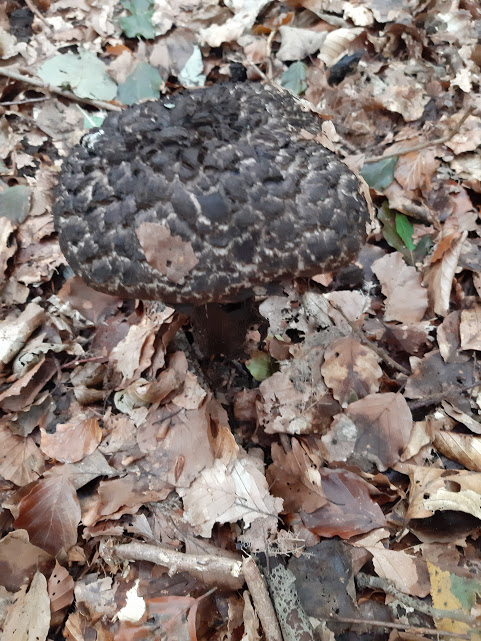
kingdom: Fungi
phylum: Basidiomycota
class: Agaricomycetes
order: Boletales
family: Boletaceae
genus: Strobilomyces
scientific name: Strobilomyces strobilaceus
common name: koglerørhat
